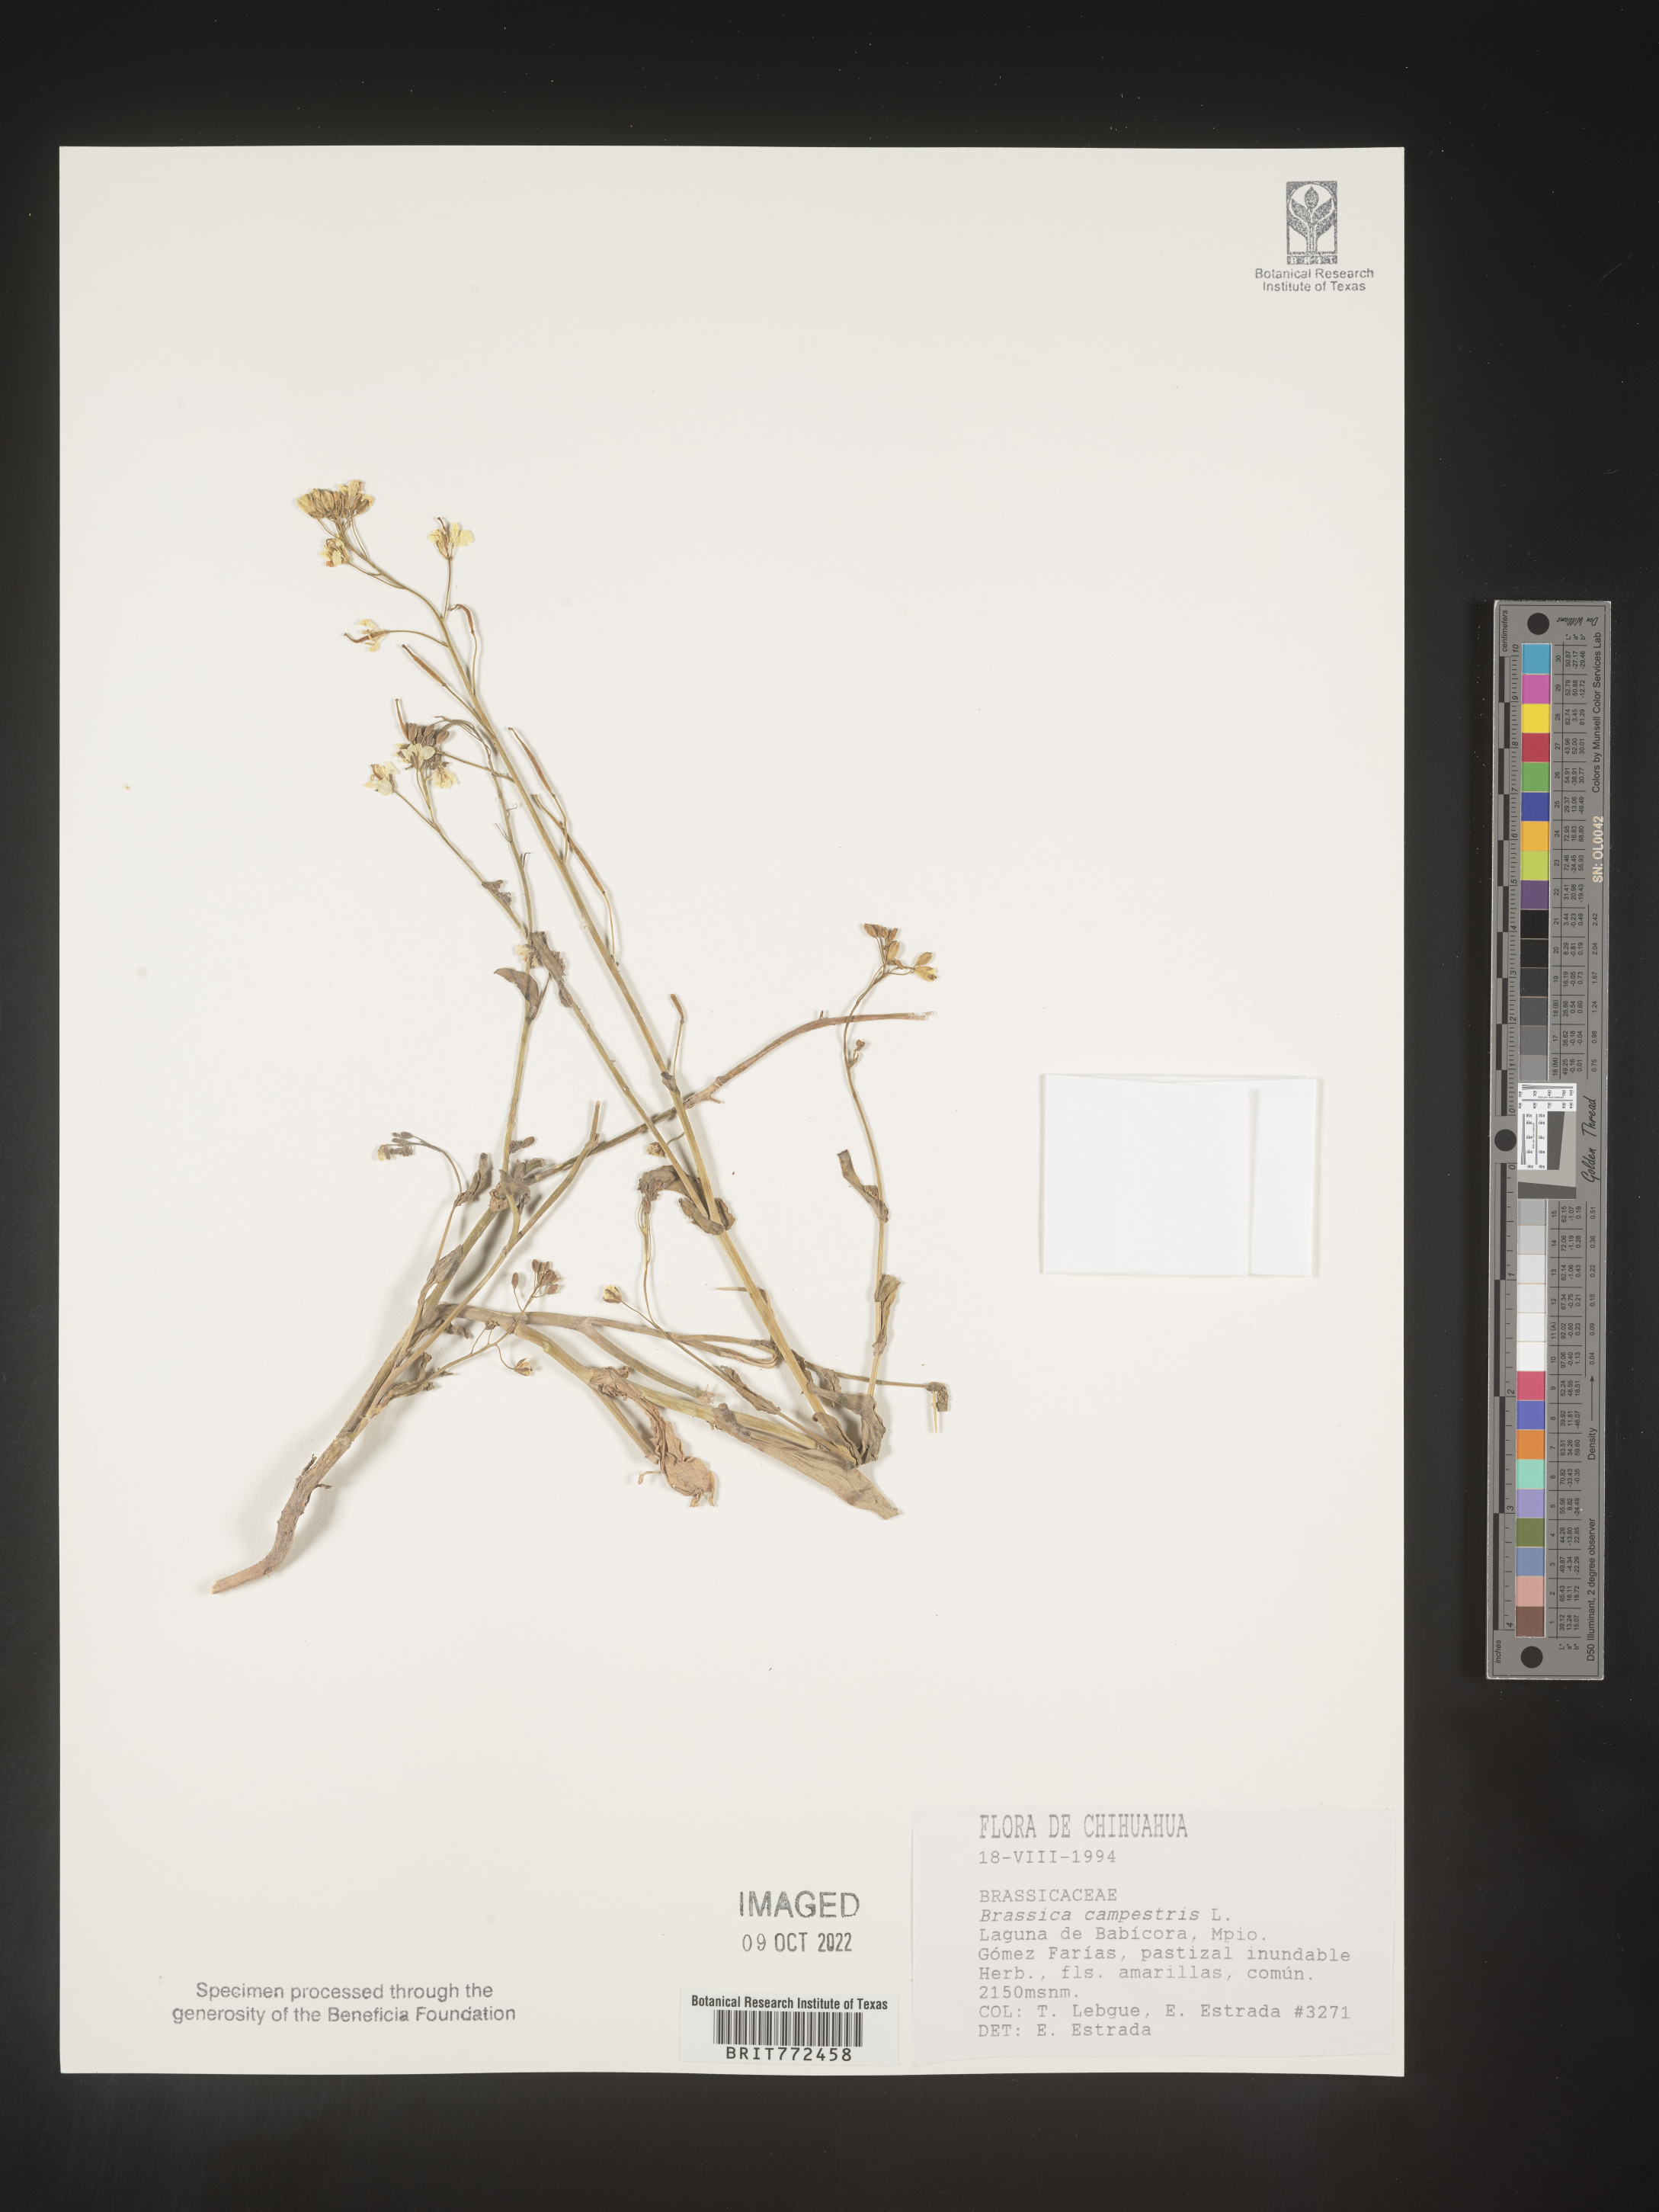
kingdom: Plantae
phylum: Tracheophyta
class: Magnoliopsida
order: Brassicales
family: Brassicaceae
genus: Brassica
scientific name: Brassica
